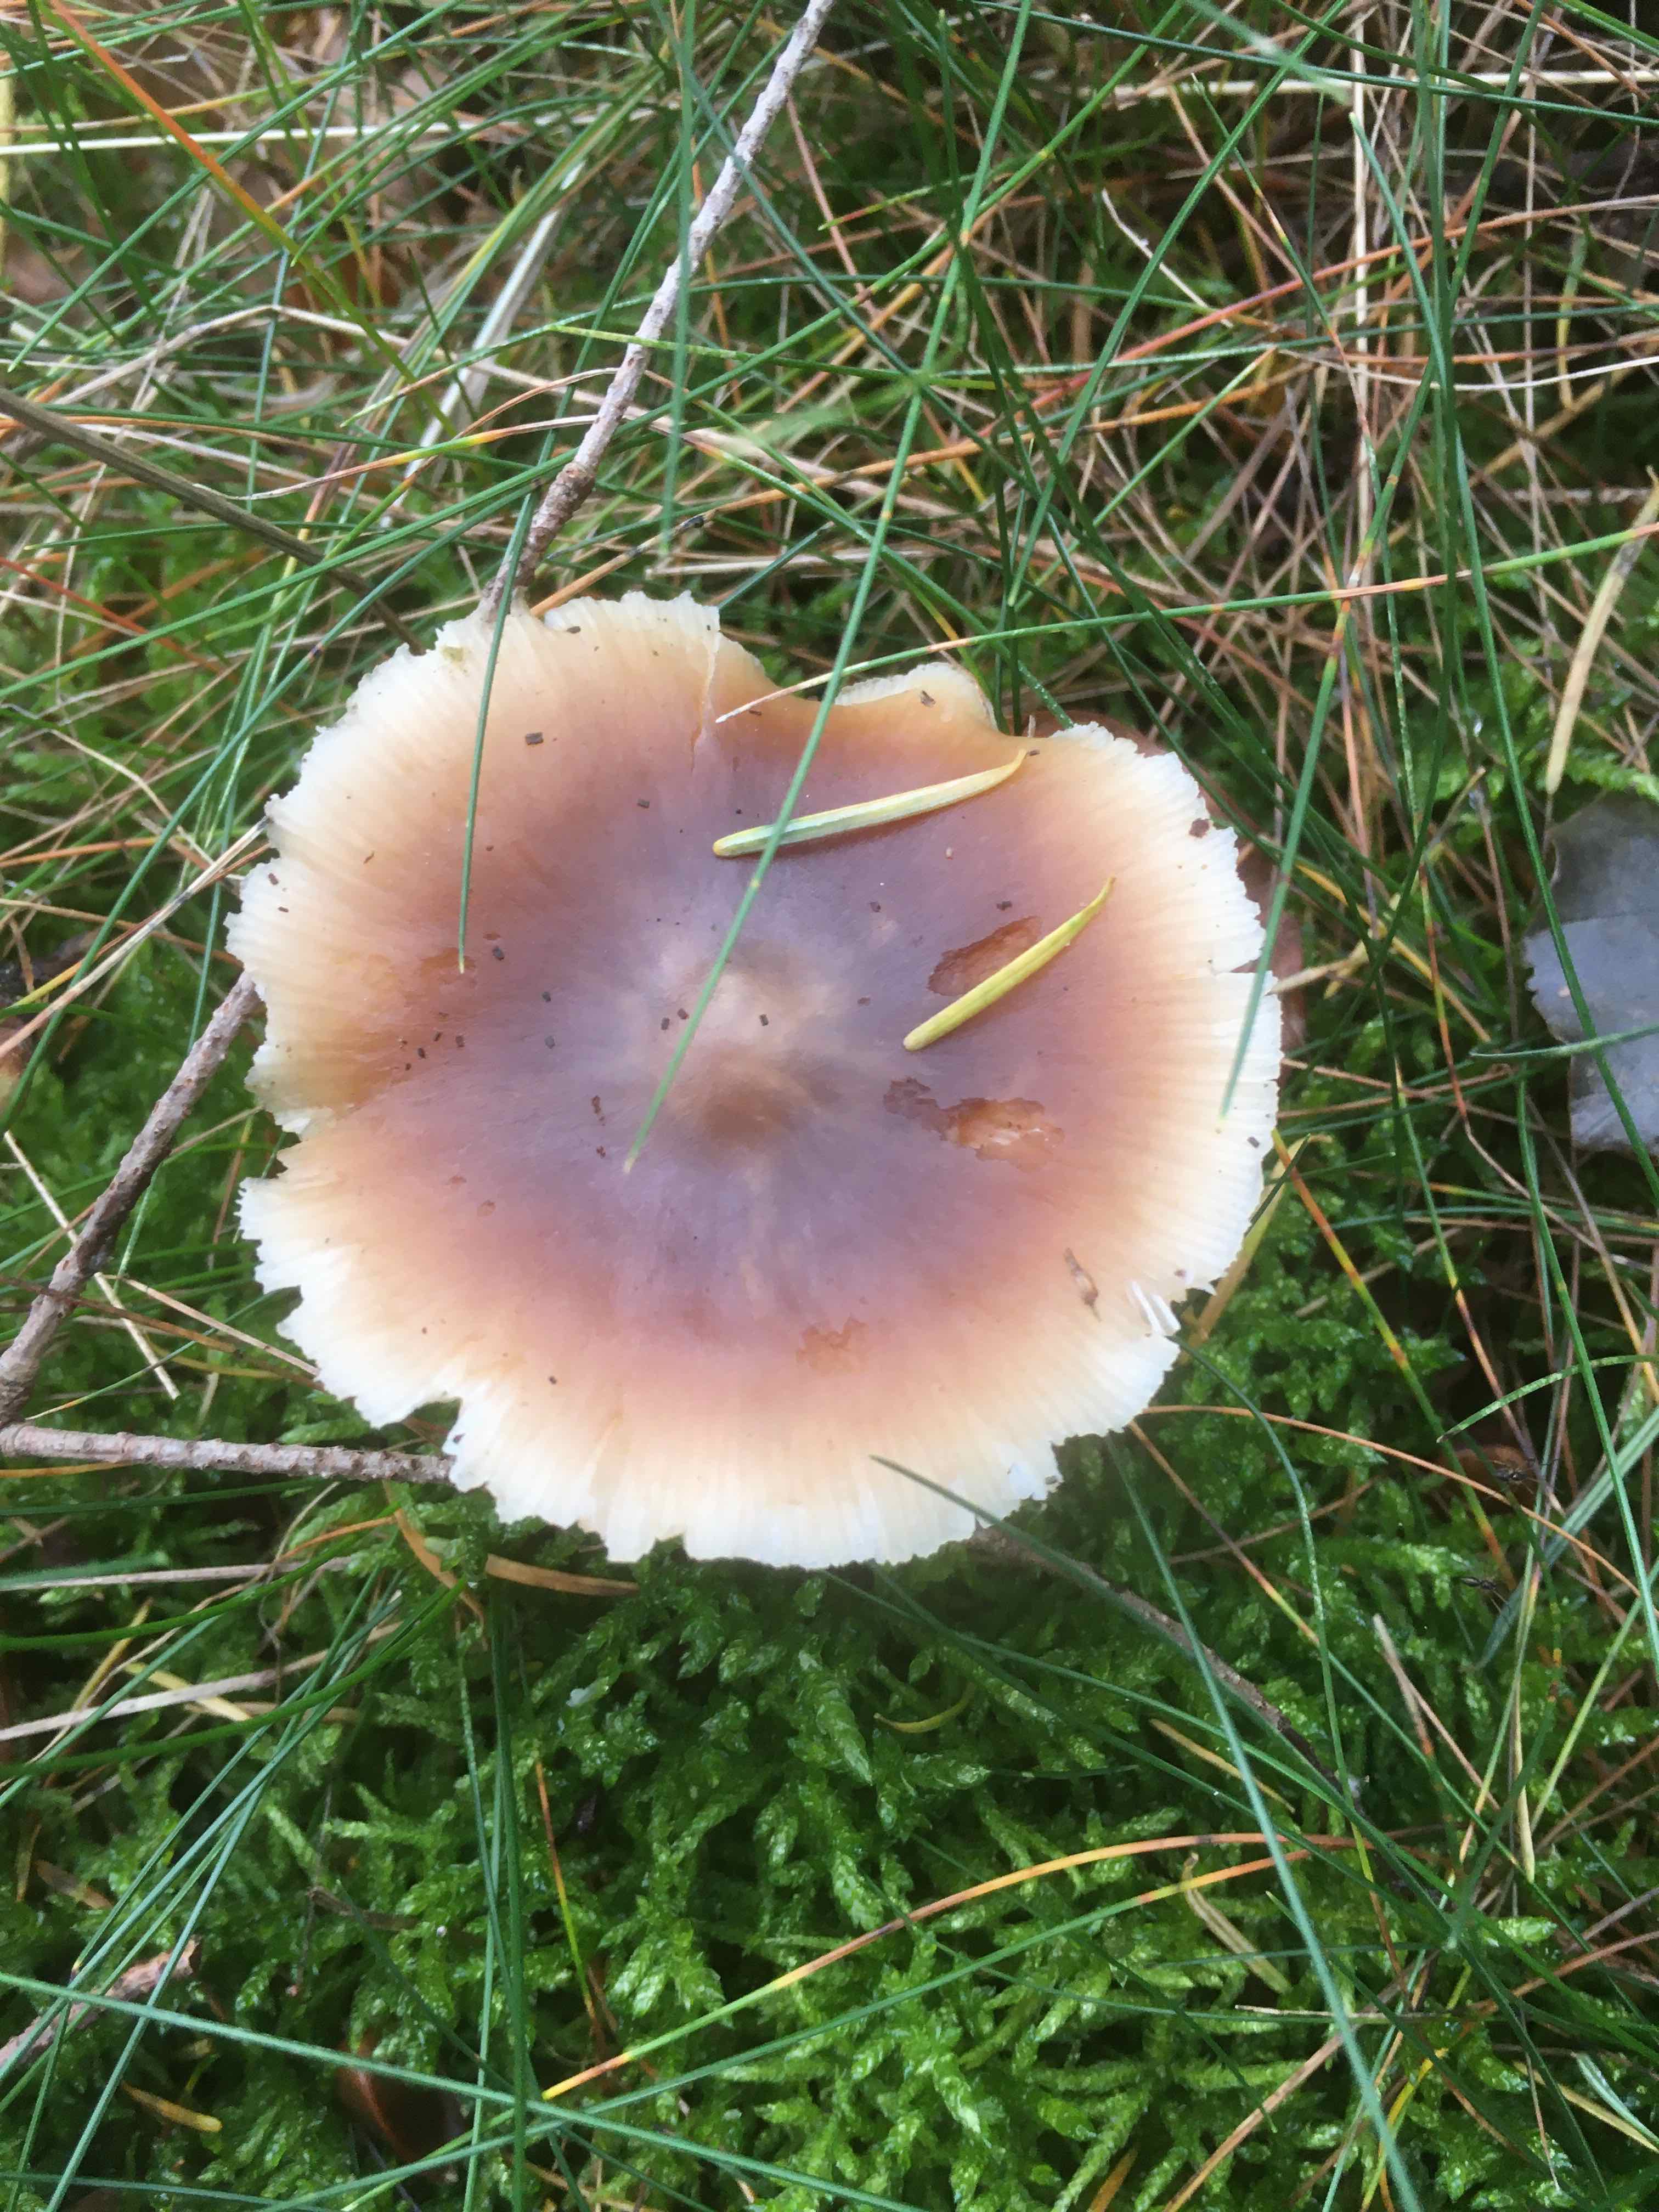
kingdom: Fungi
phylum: Basidiomycota
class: Agaricomycetes
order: Agaricales
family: Omphalotaceae
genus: Rhodocollybia
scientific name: Rhodocollybia asema
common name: horngrå fladhat
